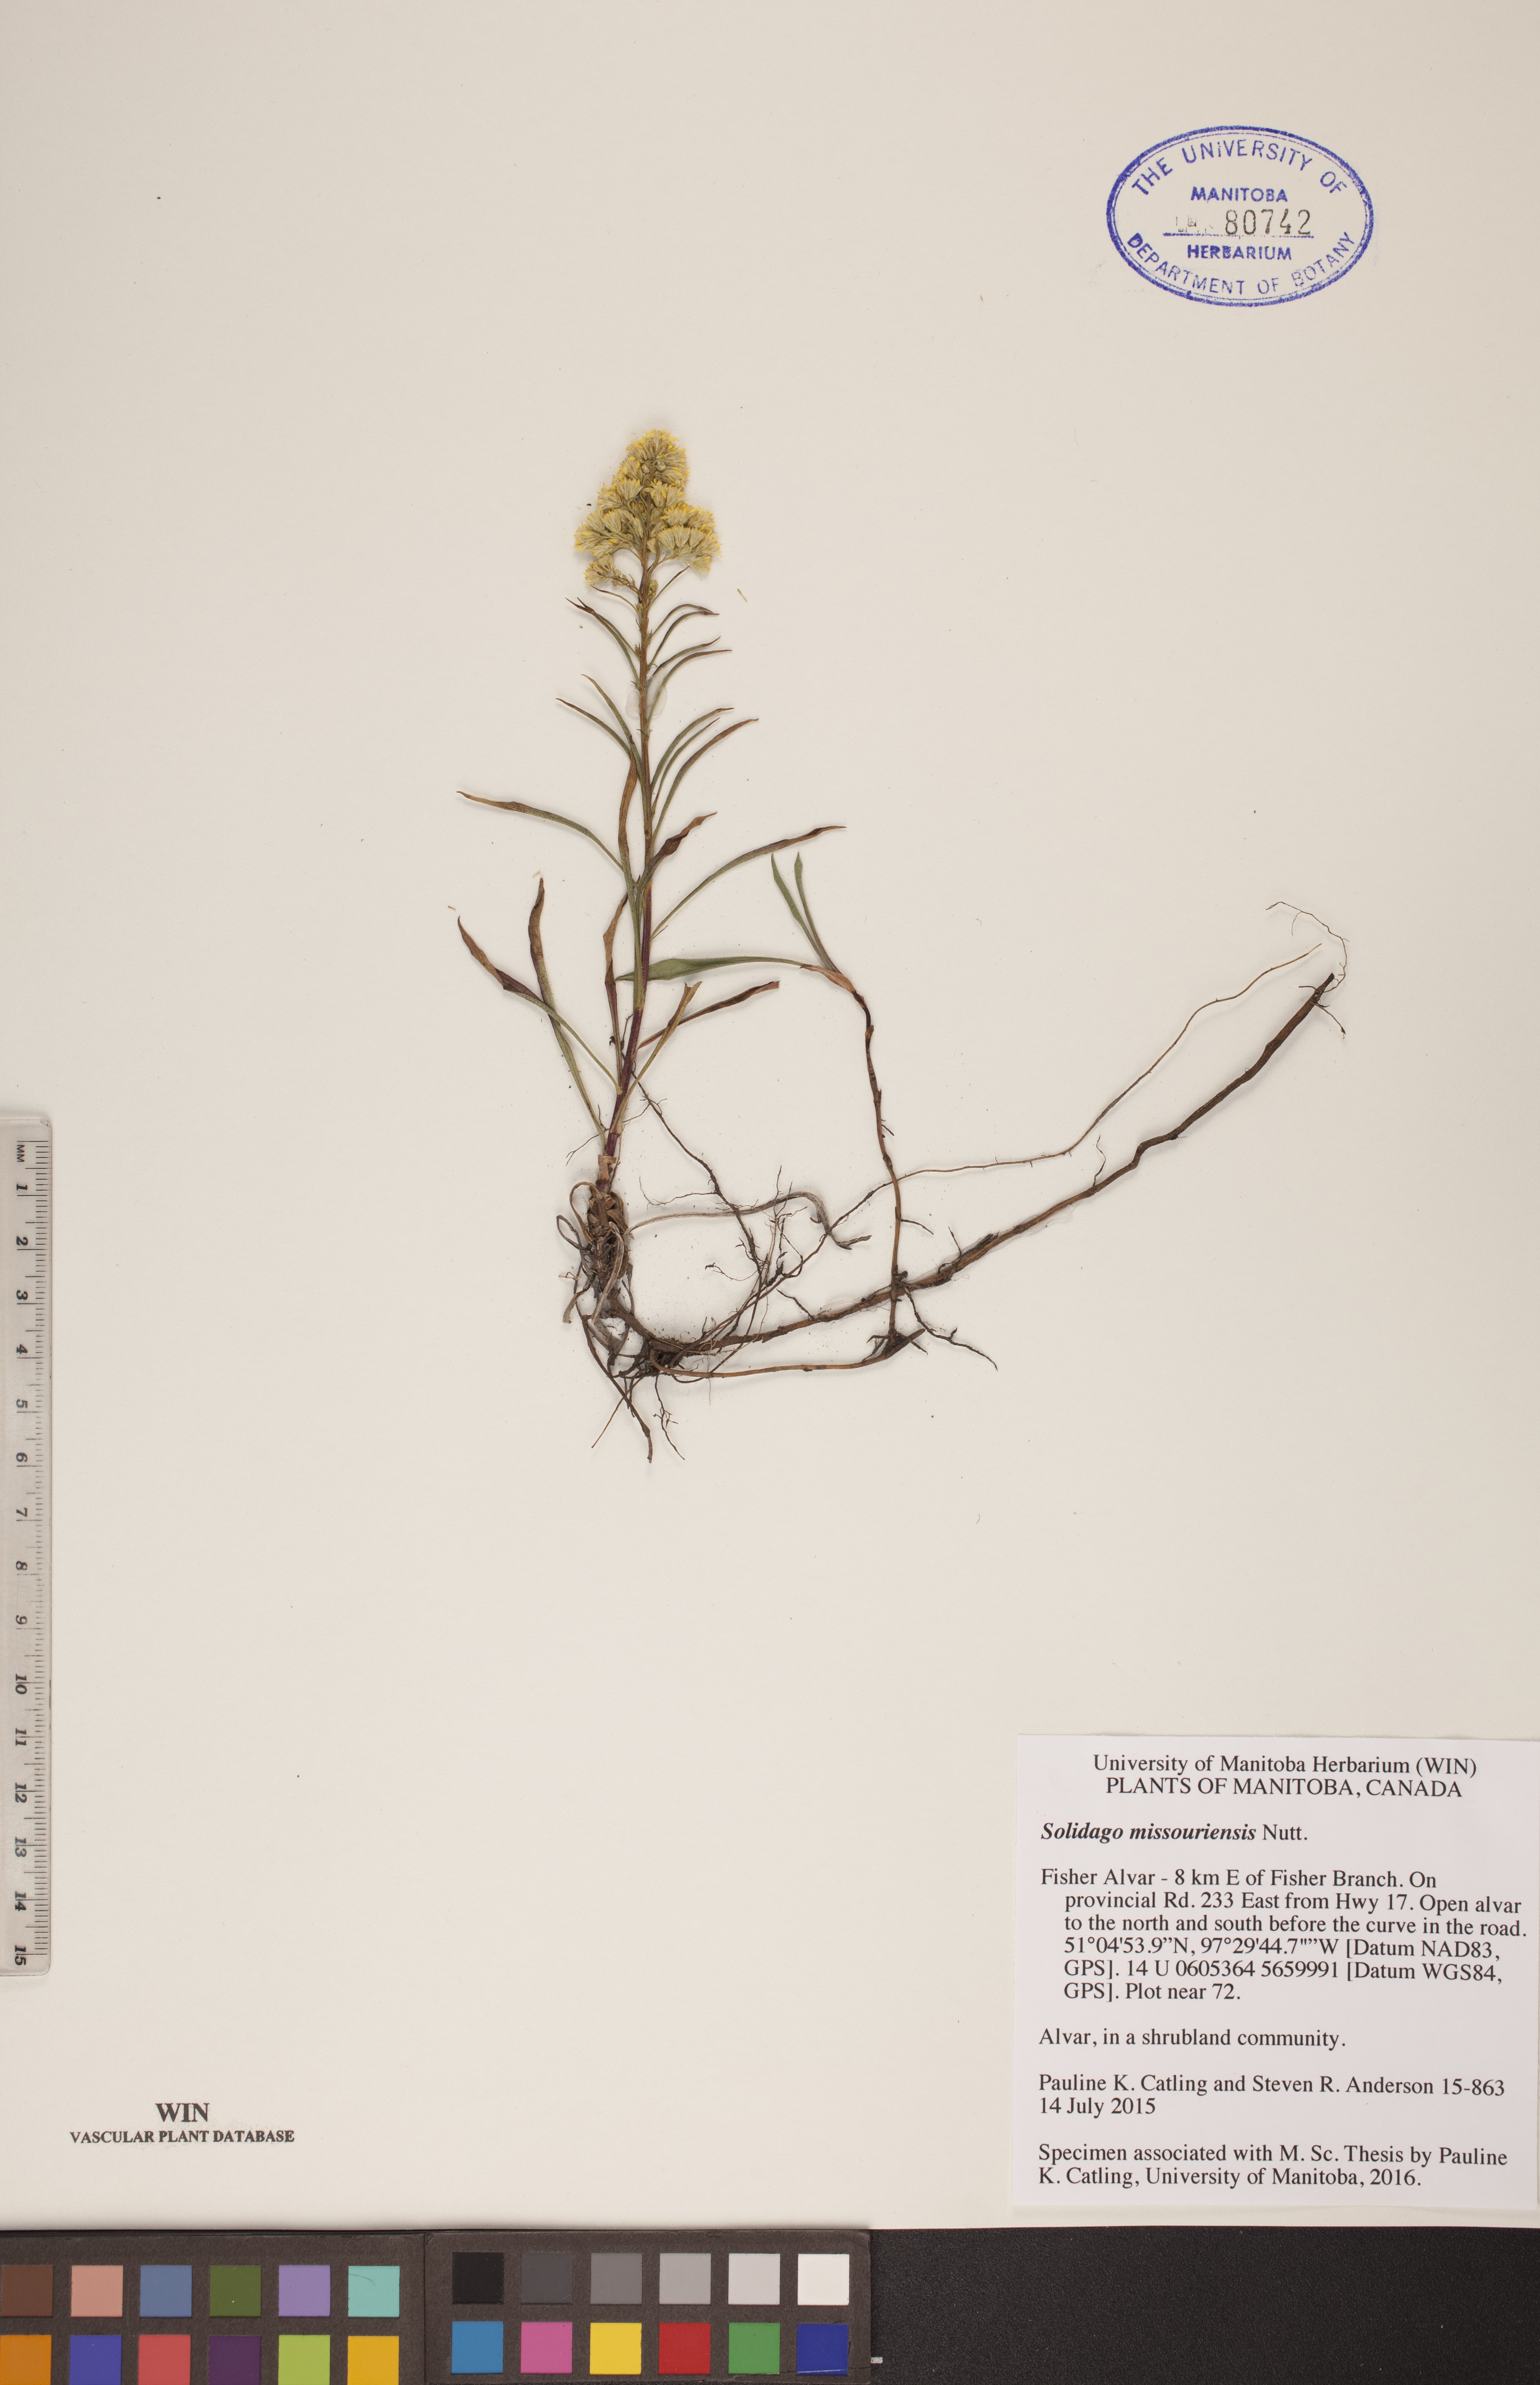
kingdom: Plantae
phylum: Tracheophyta
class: Magnoliopsida
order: Asterales
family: Asteraceae
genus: Solidago
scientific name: Solidago missouriensis
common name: Prairie goldenrod
